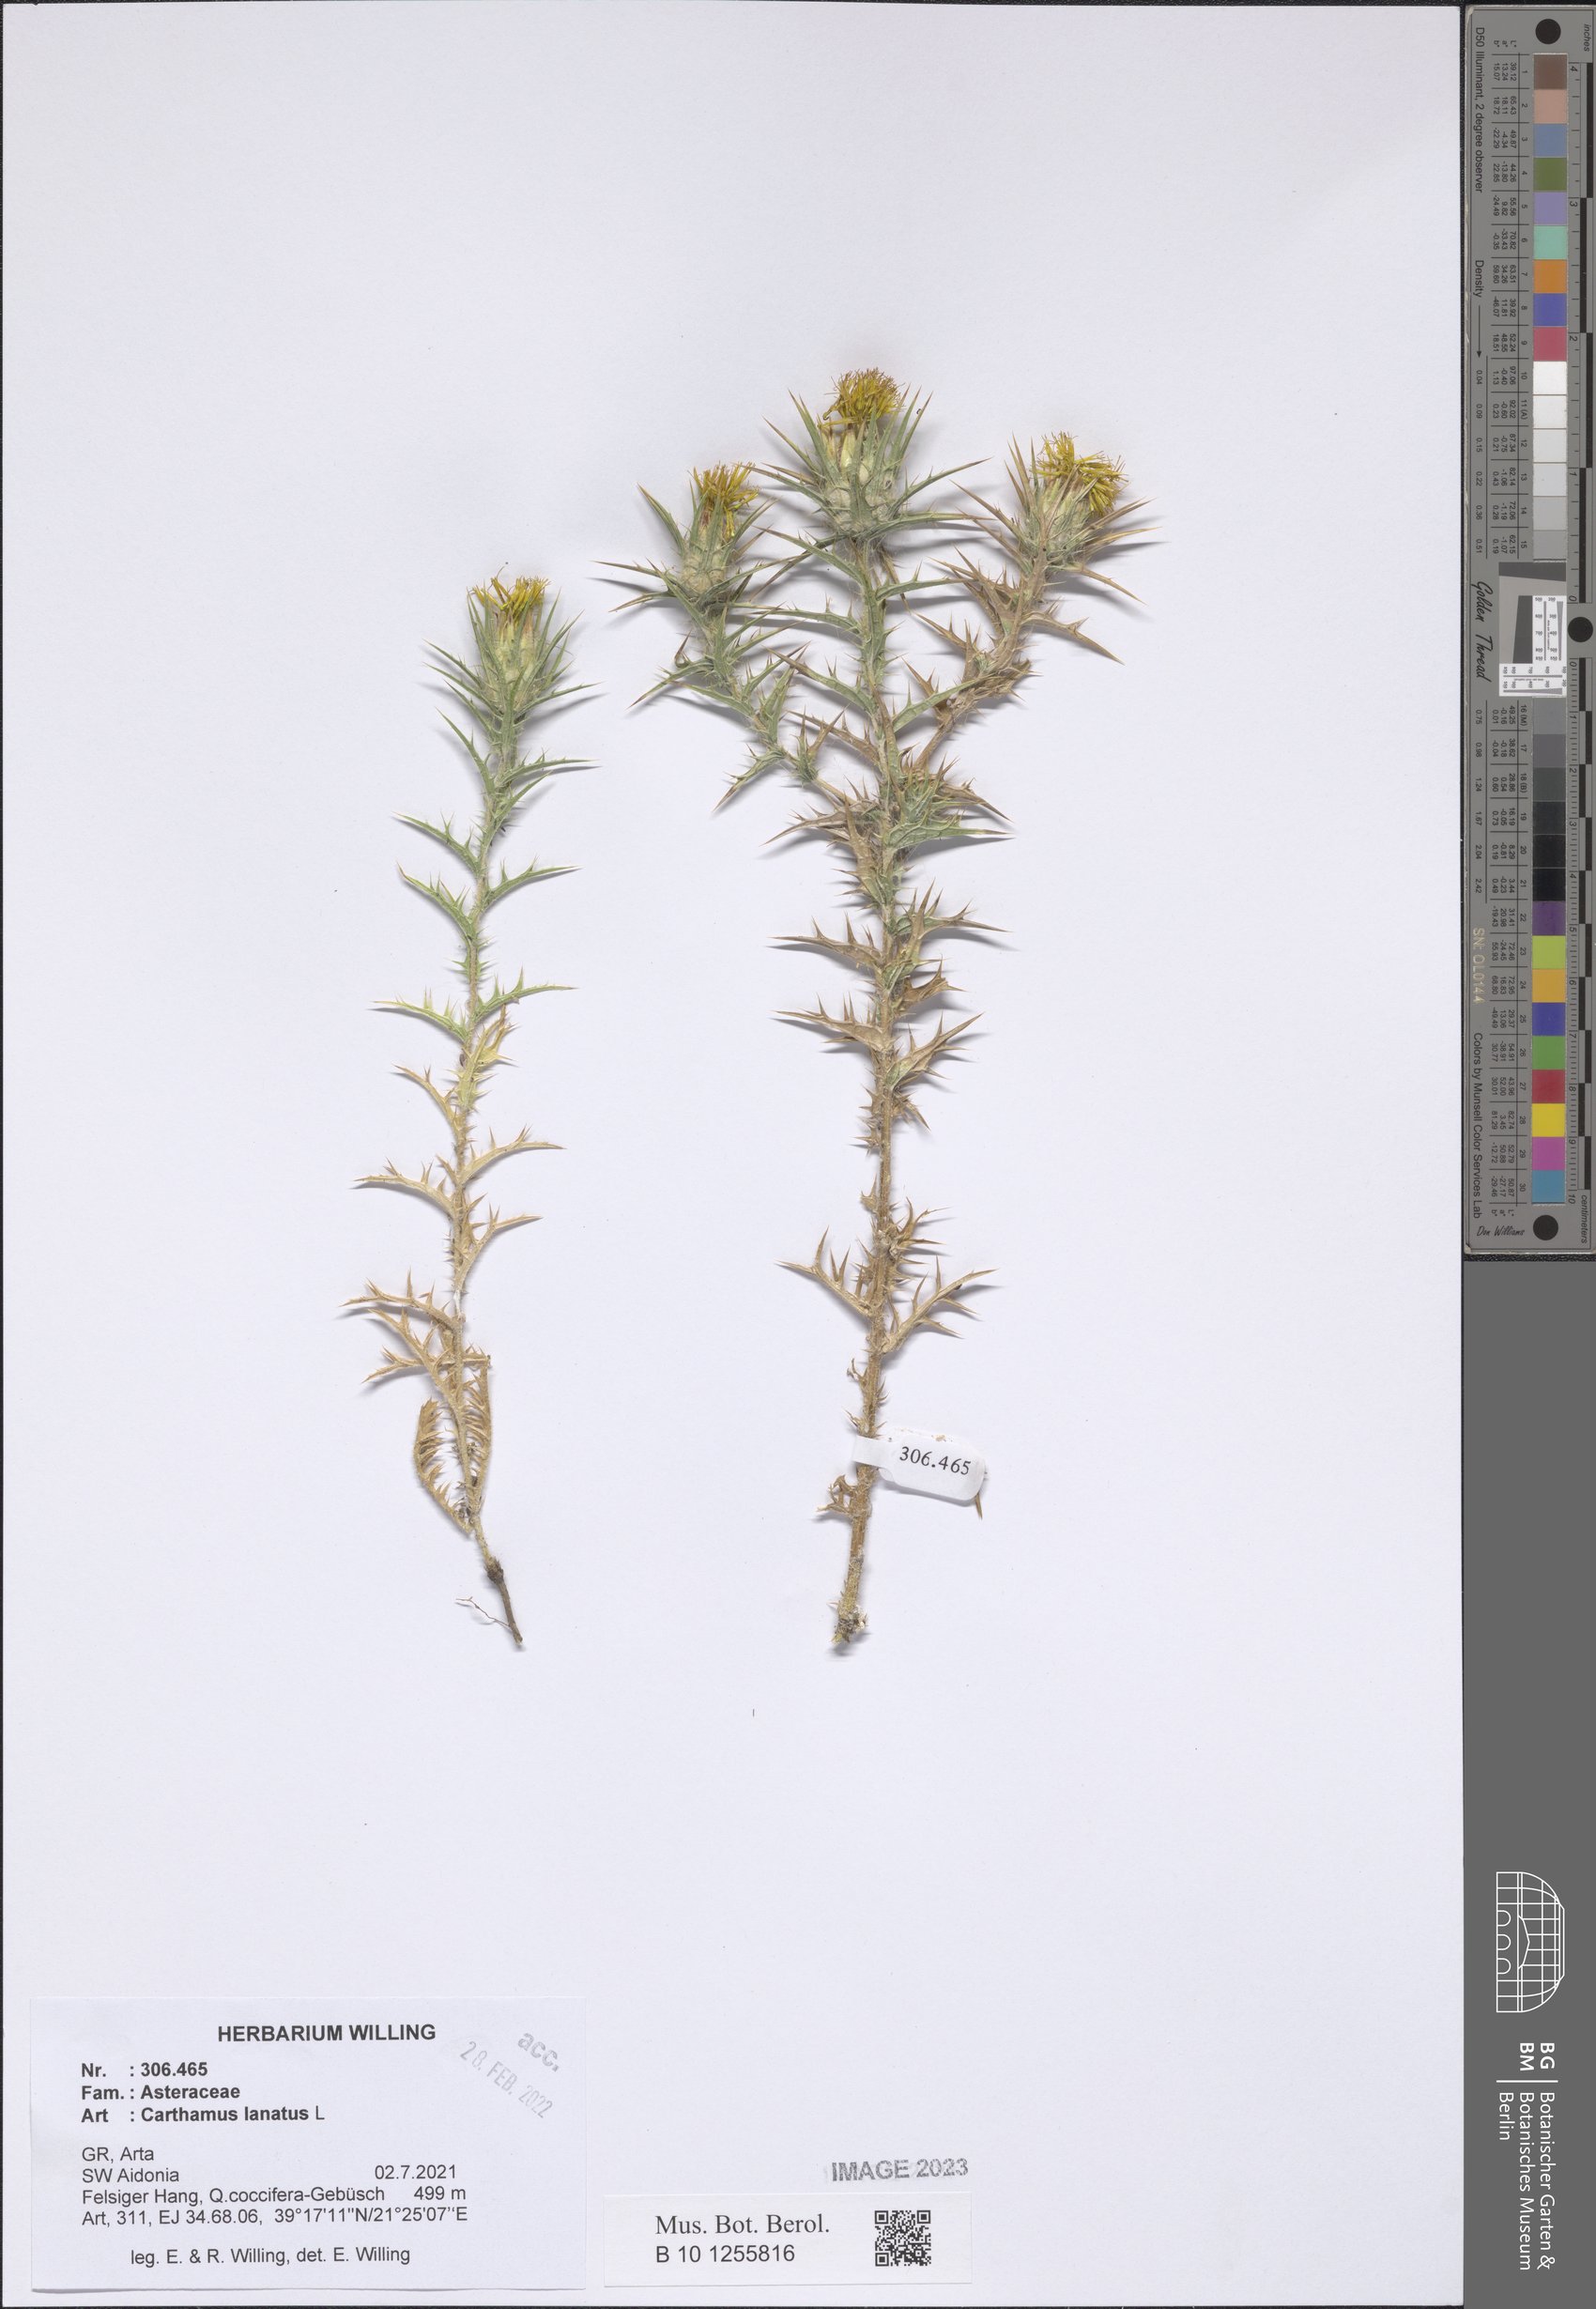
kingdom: Plantae
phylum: Tracheophyta
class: Magnoliopsida
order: Asterales
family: Asteraceae
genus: Carthamus
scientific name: Carthamus lanatus
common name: Downy safflower
